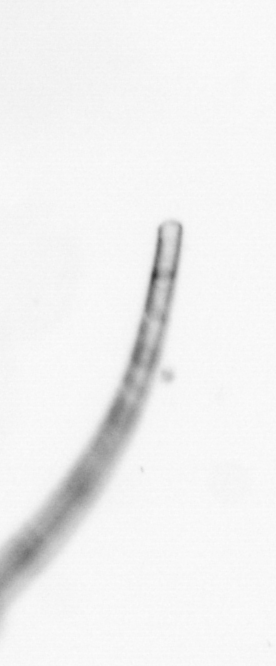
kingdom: Chromista
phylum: Ochrophyta
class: Bacillariophyceae
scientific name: Bacillariophyceae
